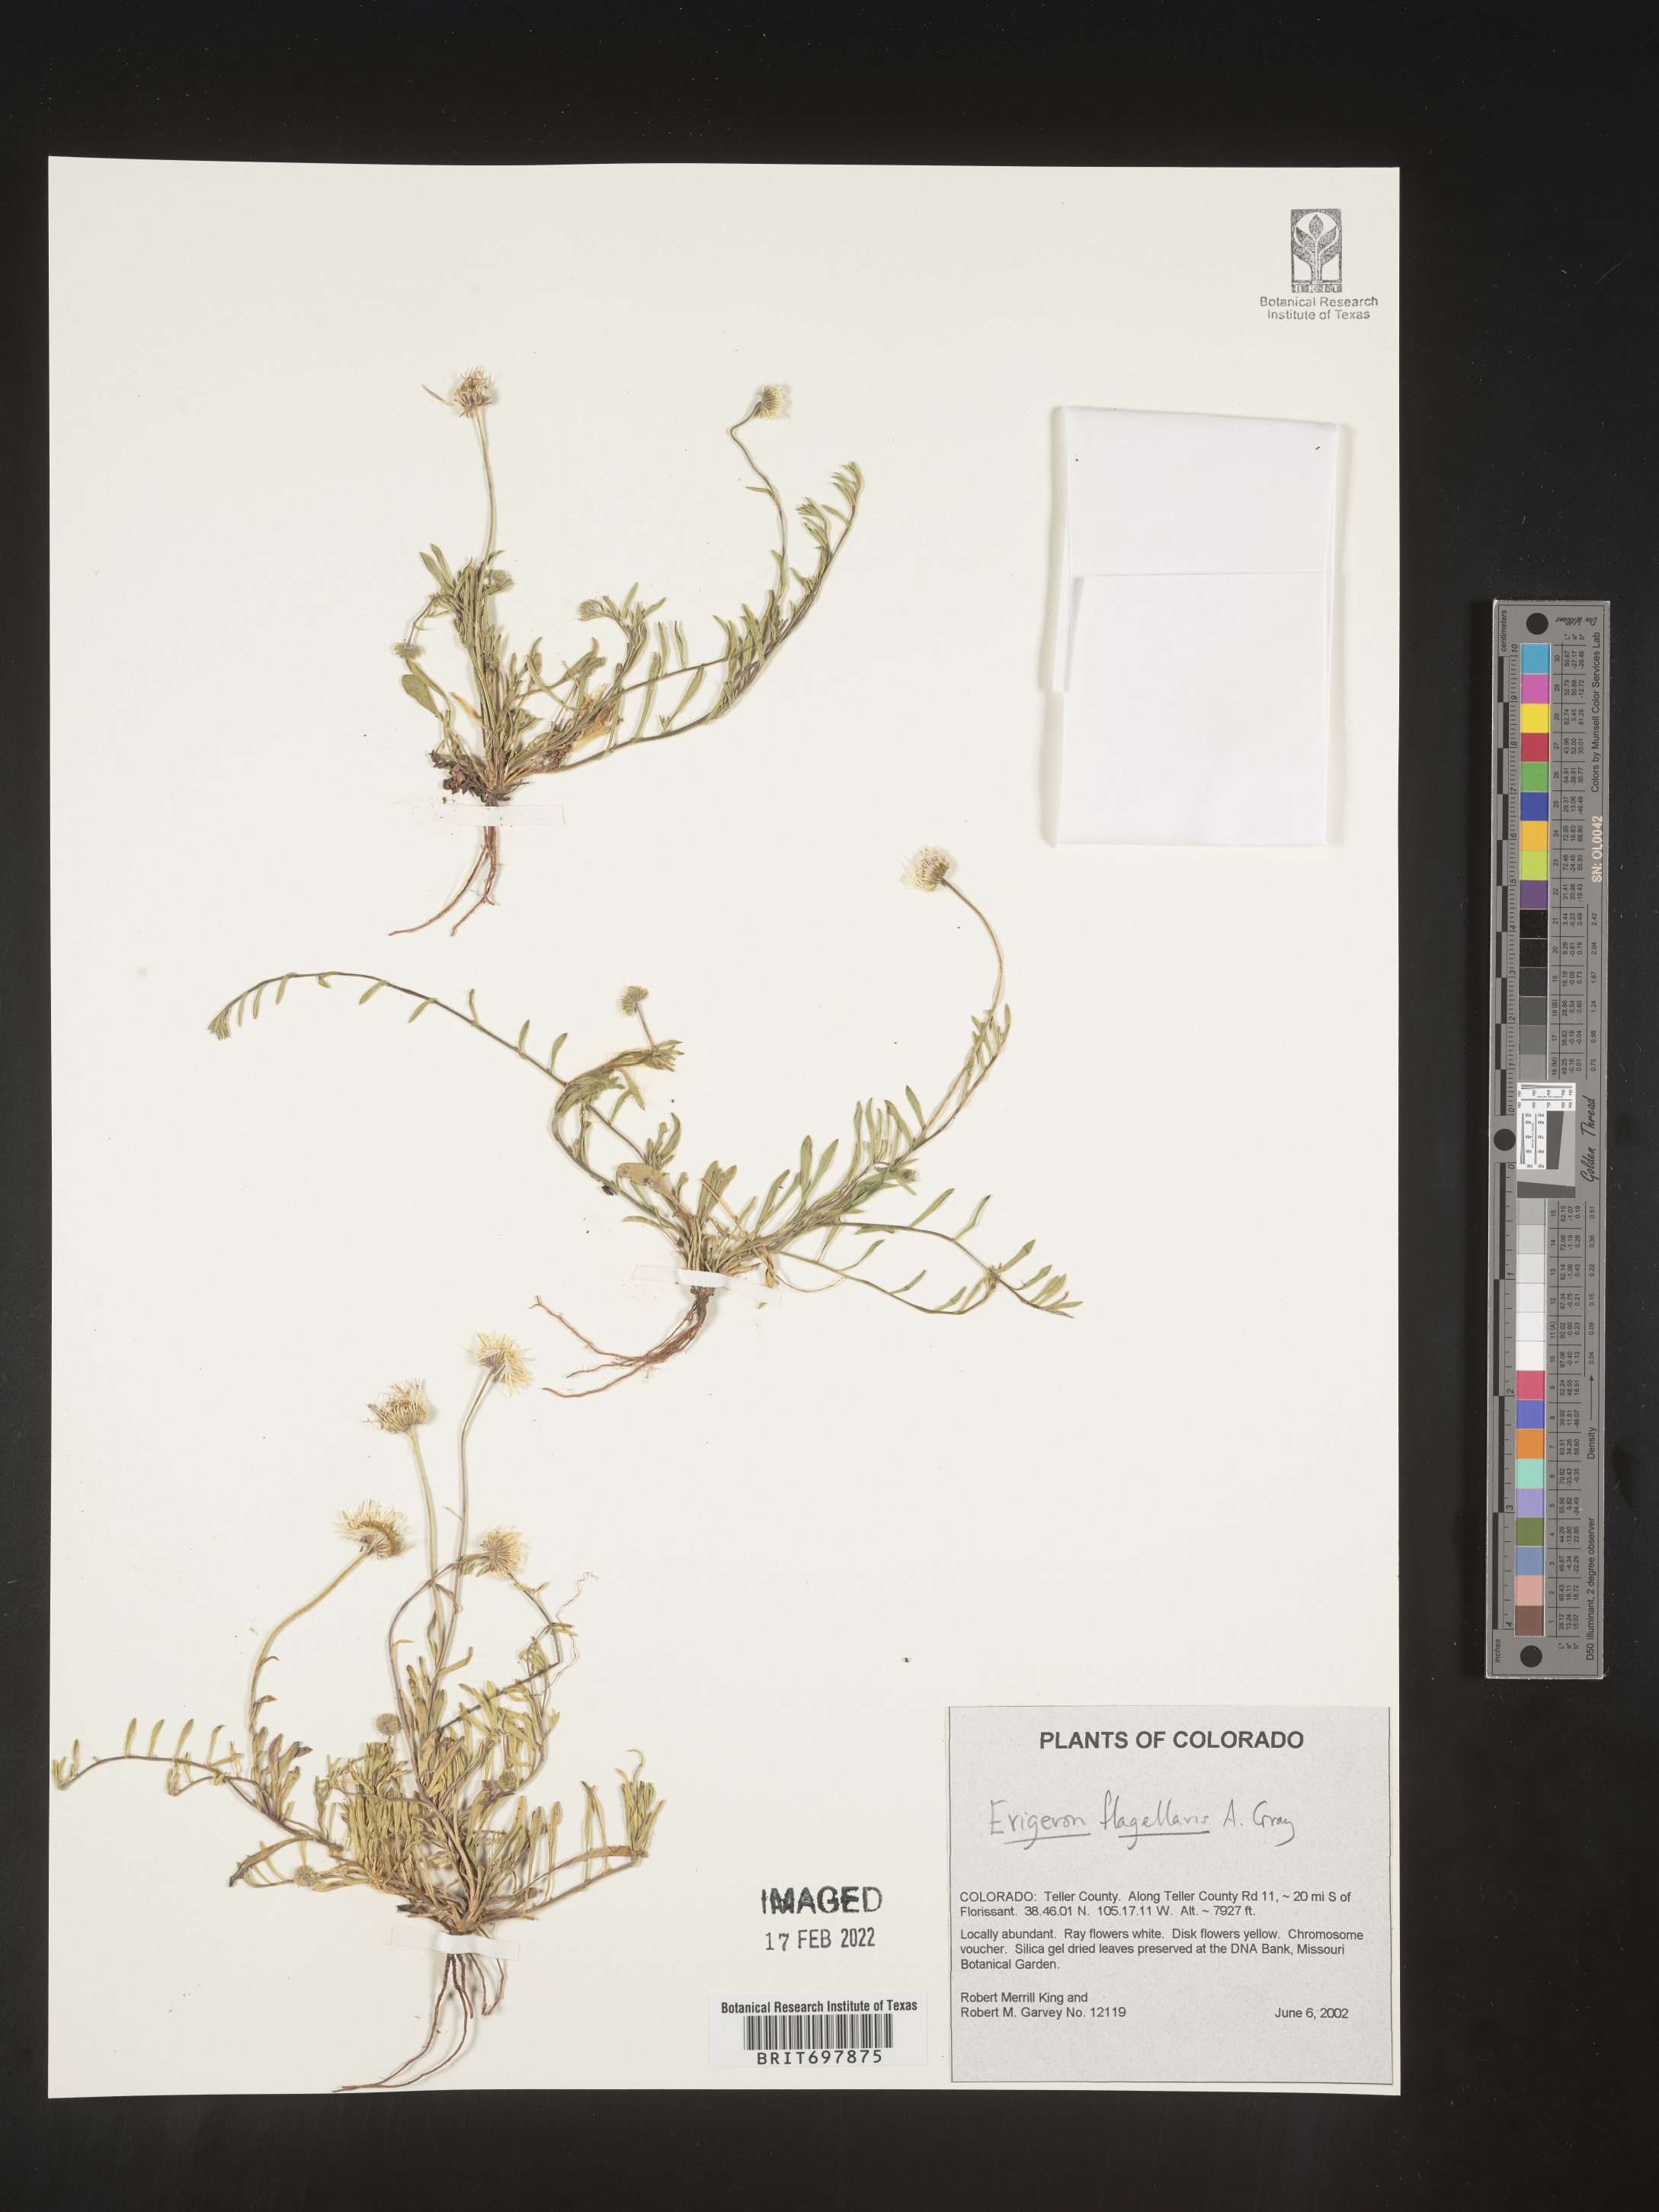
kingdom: Plantae
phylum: Tracheophyta
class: Magnoliopsida
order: Asterales
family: Asteraceae
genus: Erigeron
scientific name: Erigeron flagellaris
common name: Running fleabane
